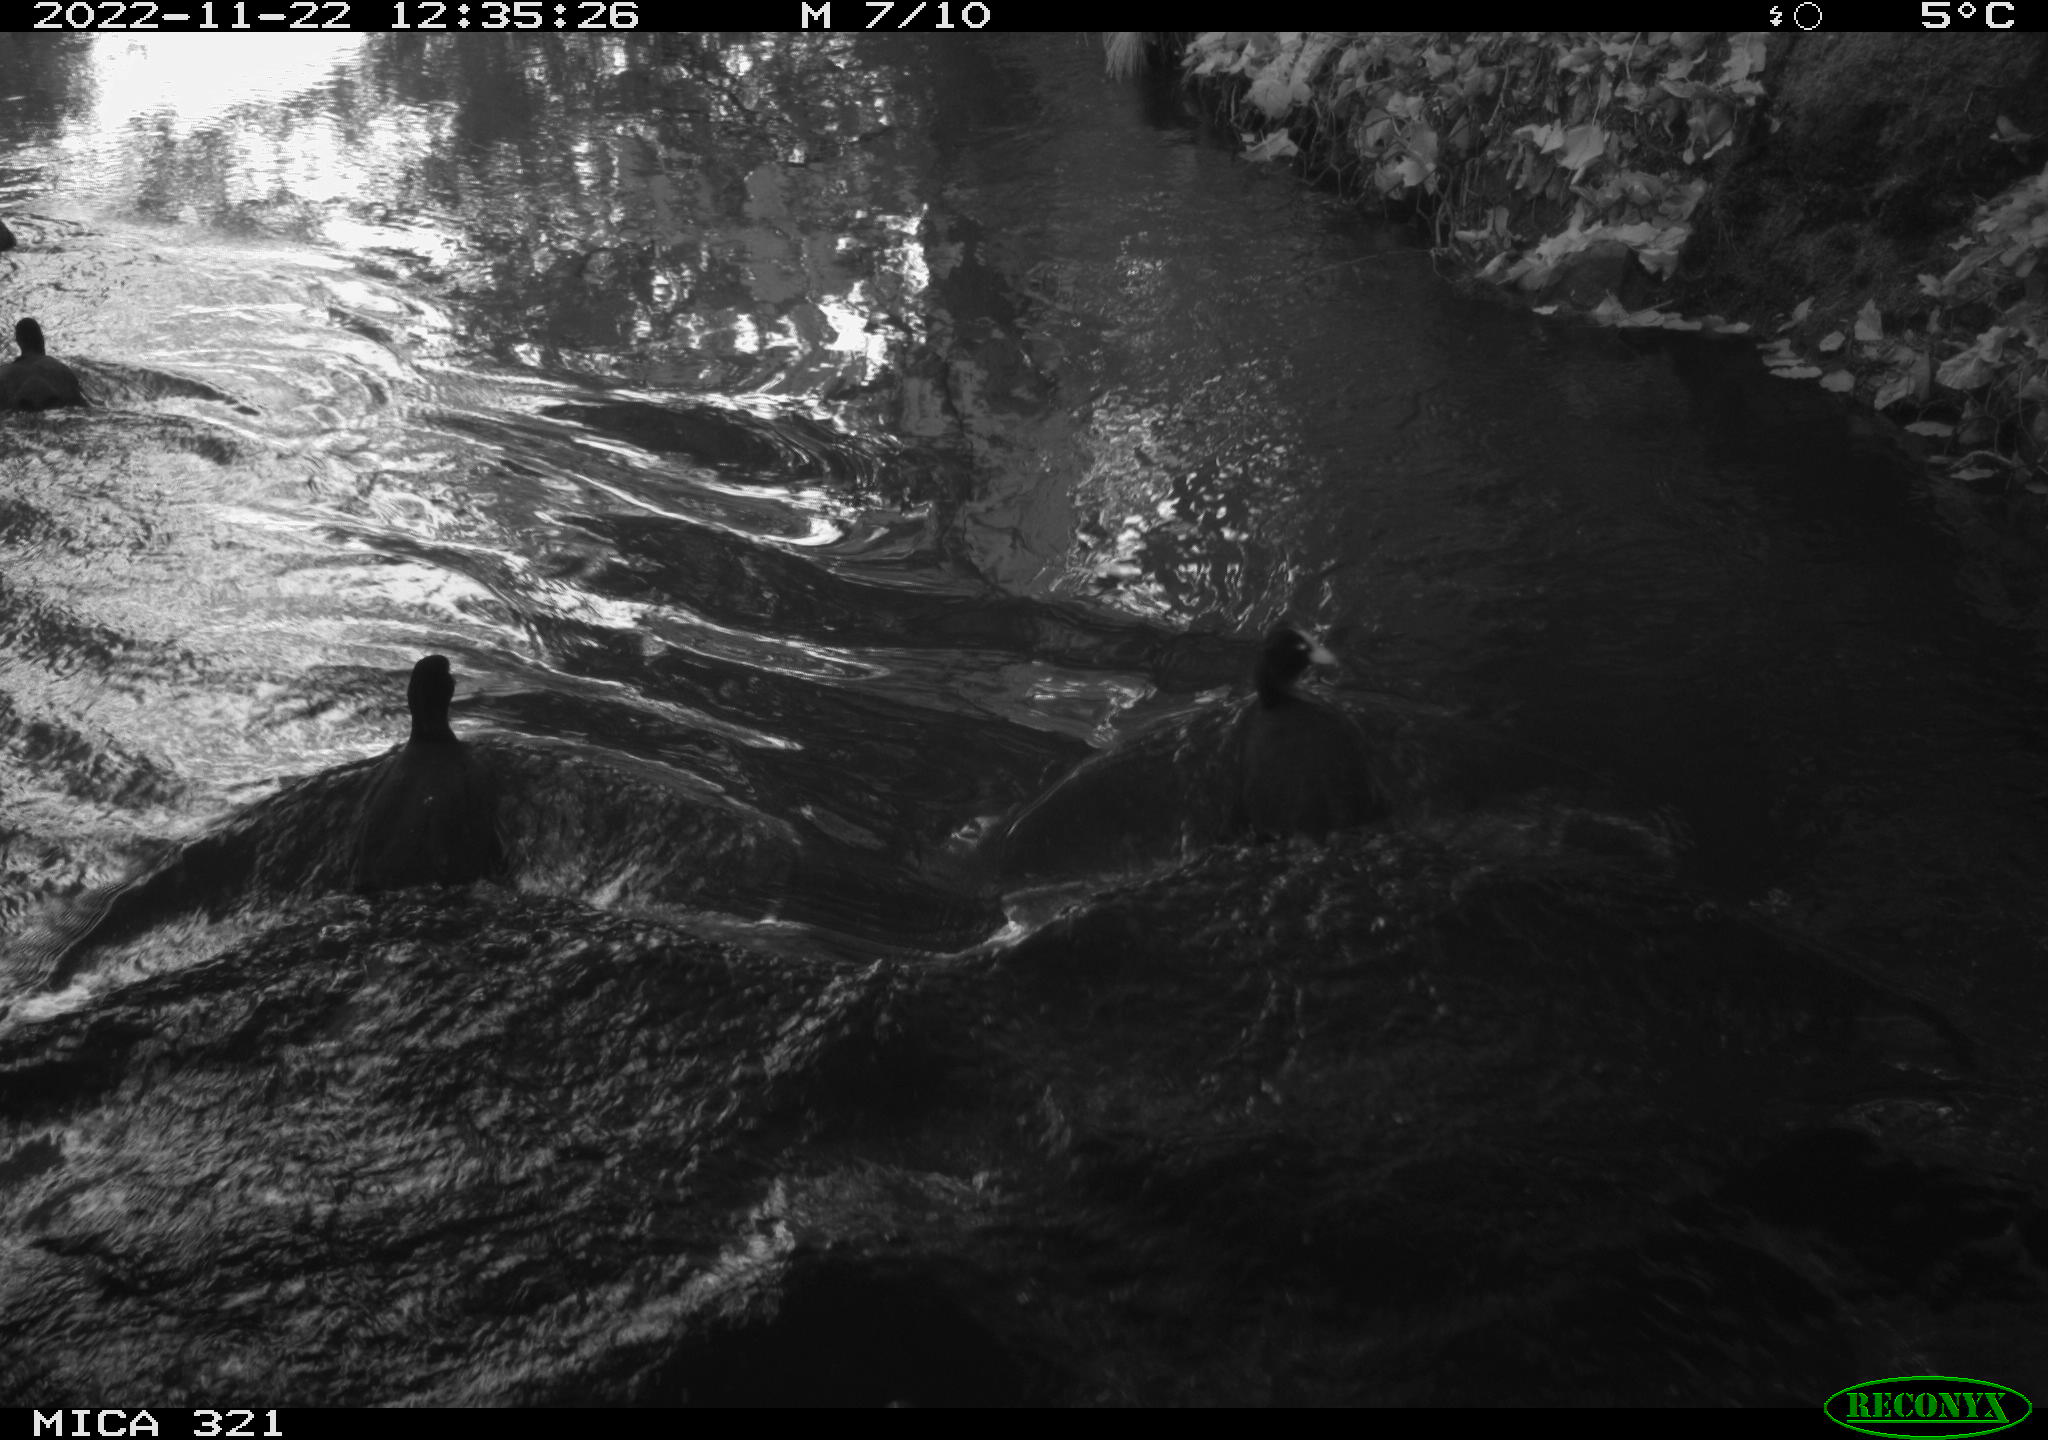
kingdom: Animalia
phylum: Chordata
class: Aves
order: Anseriformes
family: Anatidae
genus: Anas
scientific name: Anas
